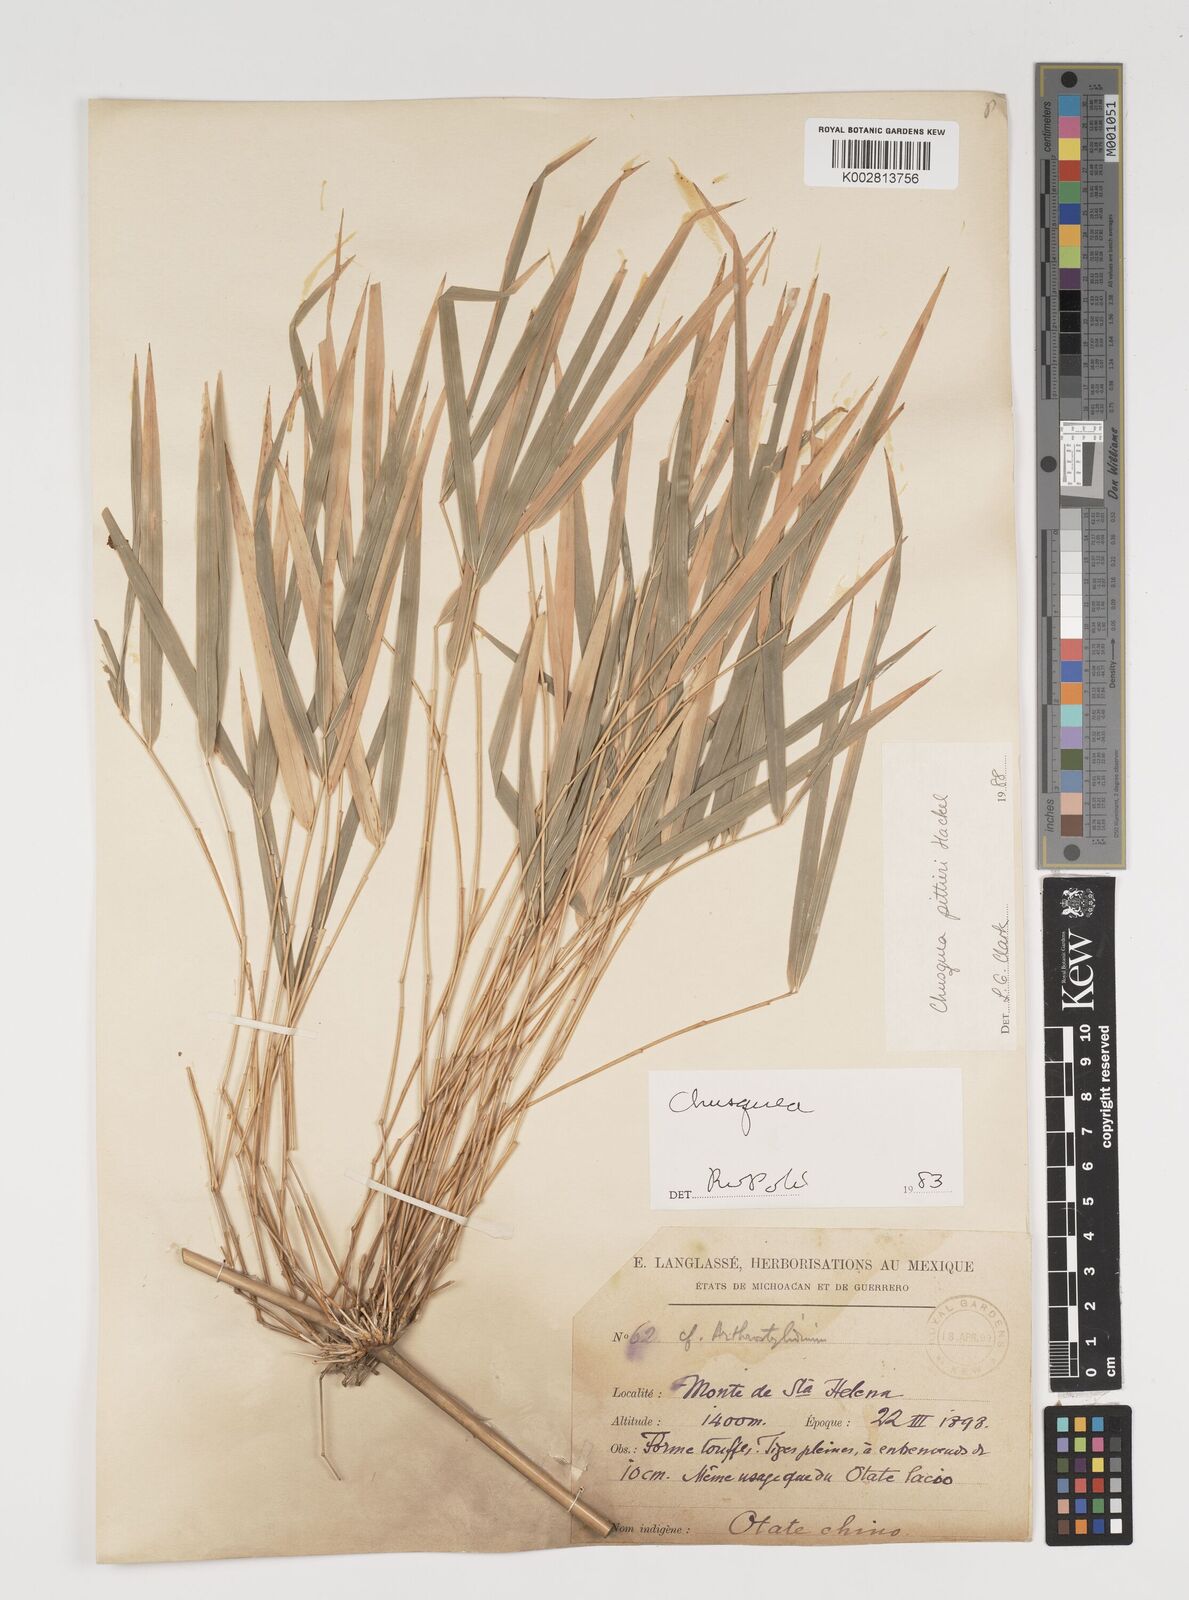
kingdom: Plantae
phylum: Tracheophyta
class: Liliopsida
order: Poales
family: Poaceae
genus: Chusquea
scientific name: Chusquea pittieri
